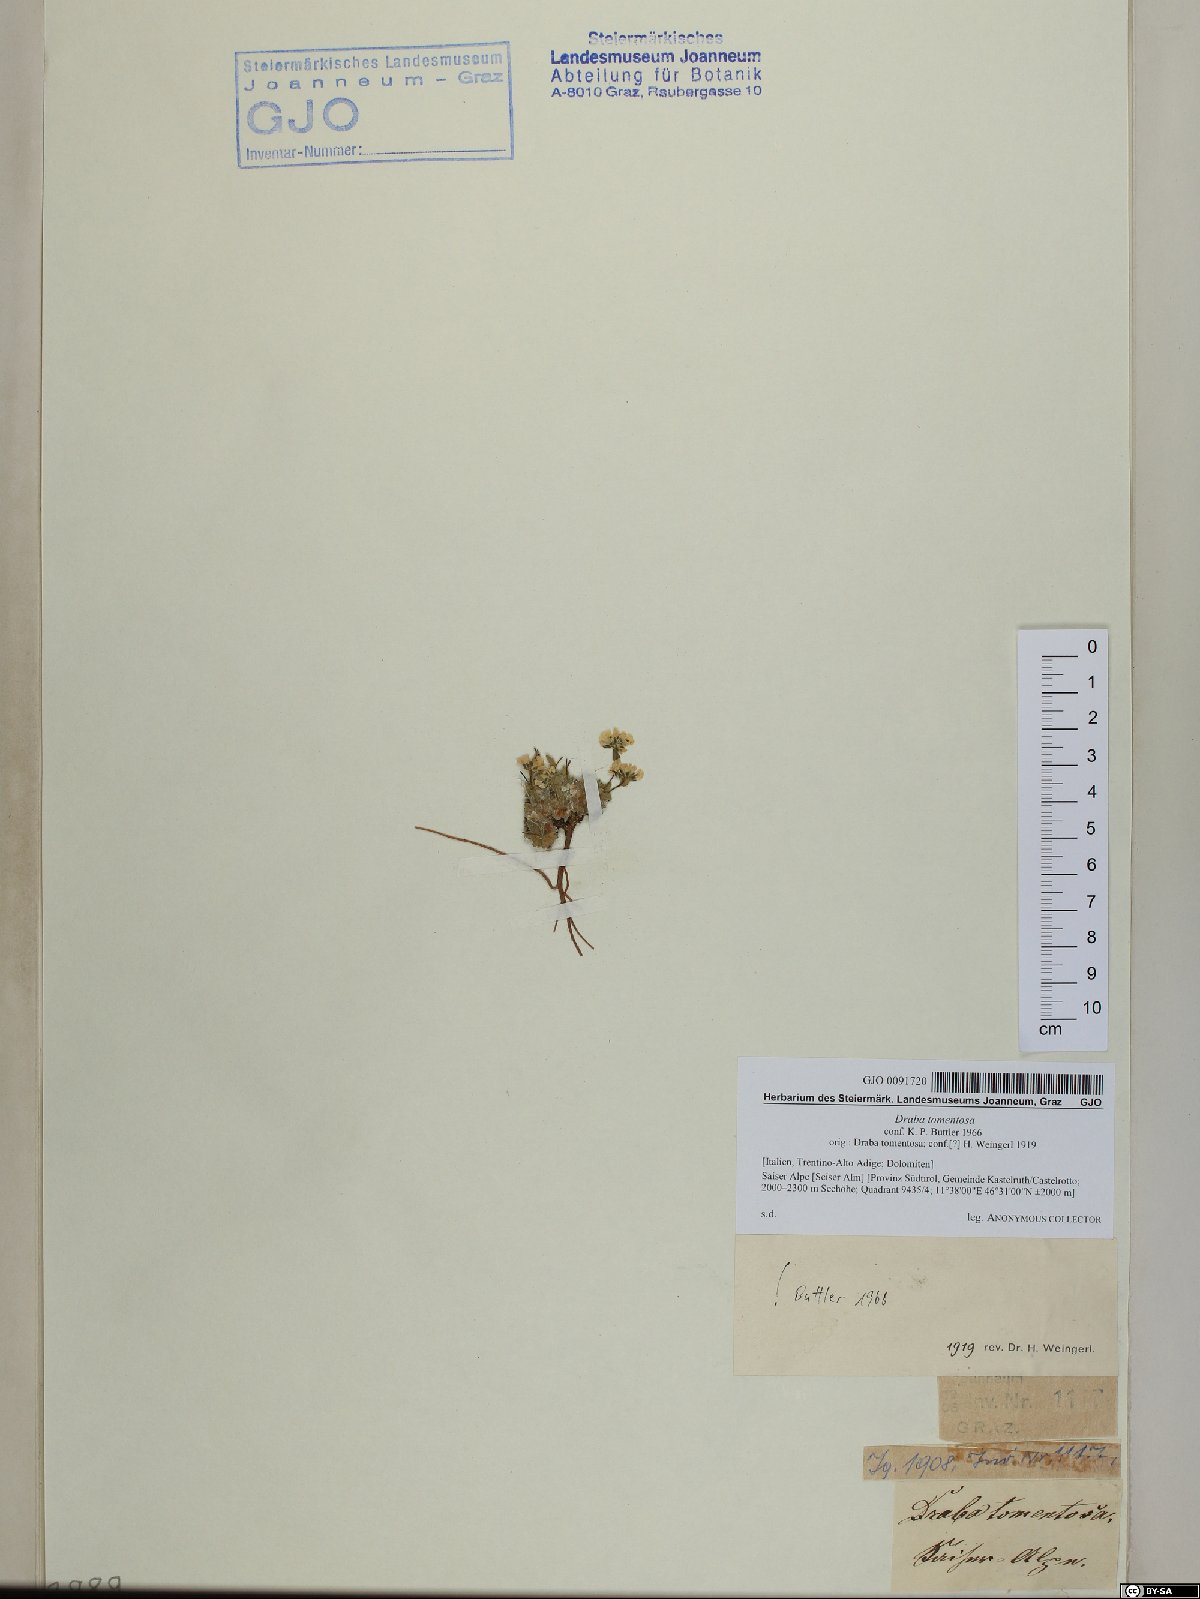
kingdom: Plantae
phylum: Tracheophyta
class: Magnoliopsida
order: Brassicales
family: Brassicaceae
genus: Draba
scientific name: Draba tomentosa
